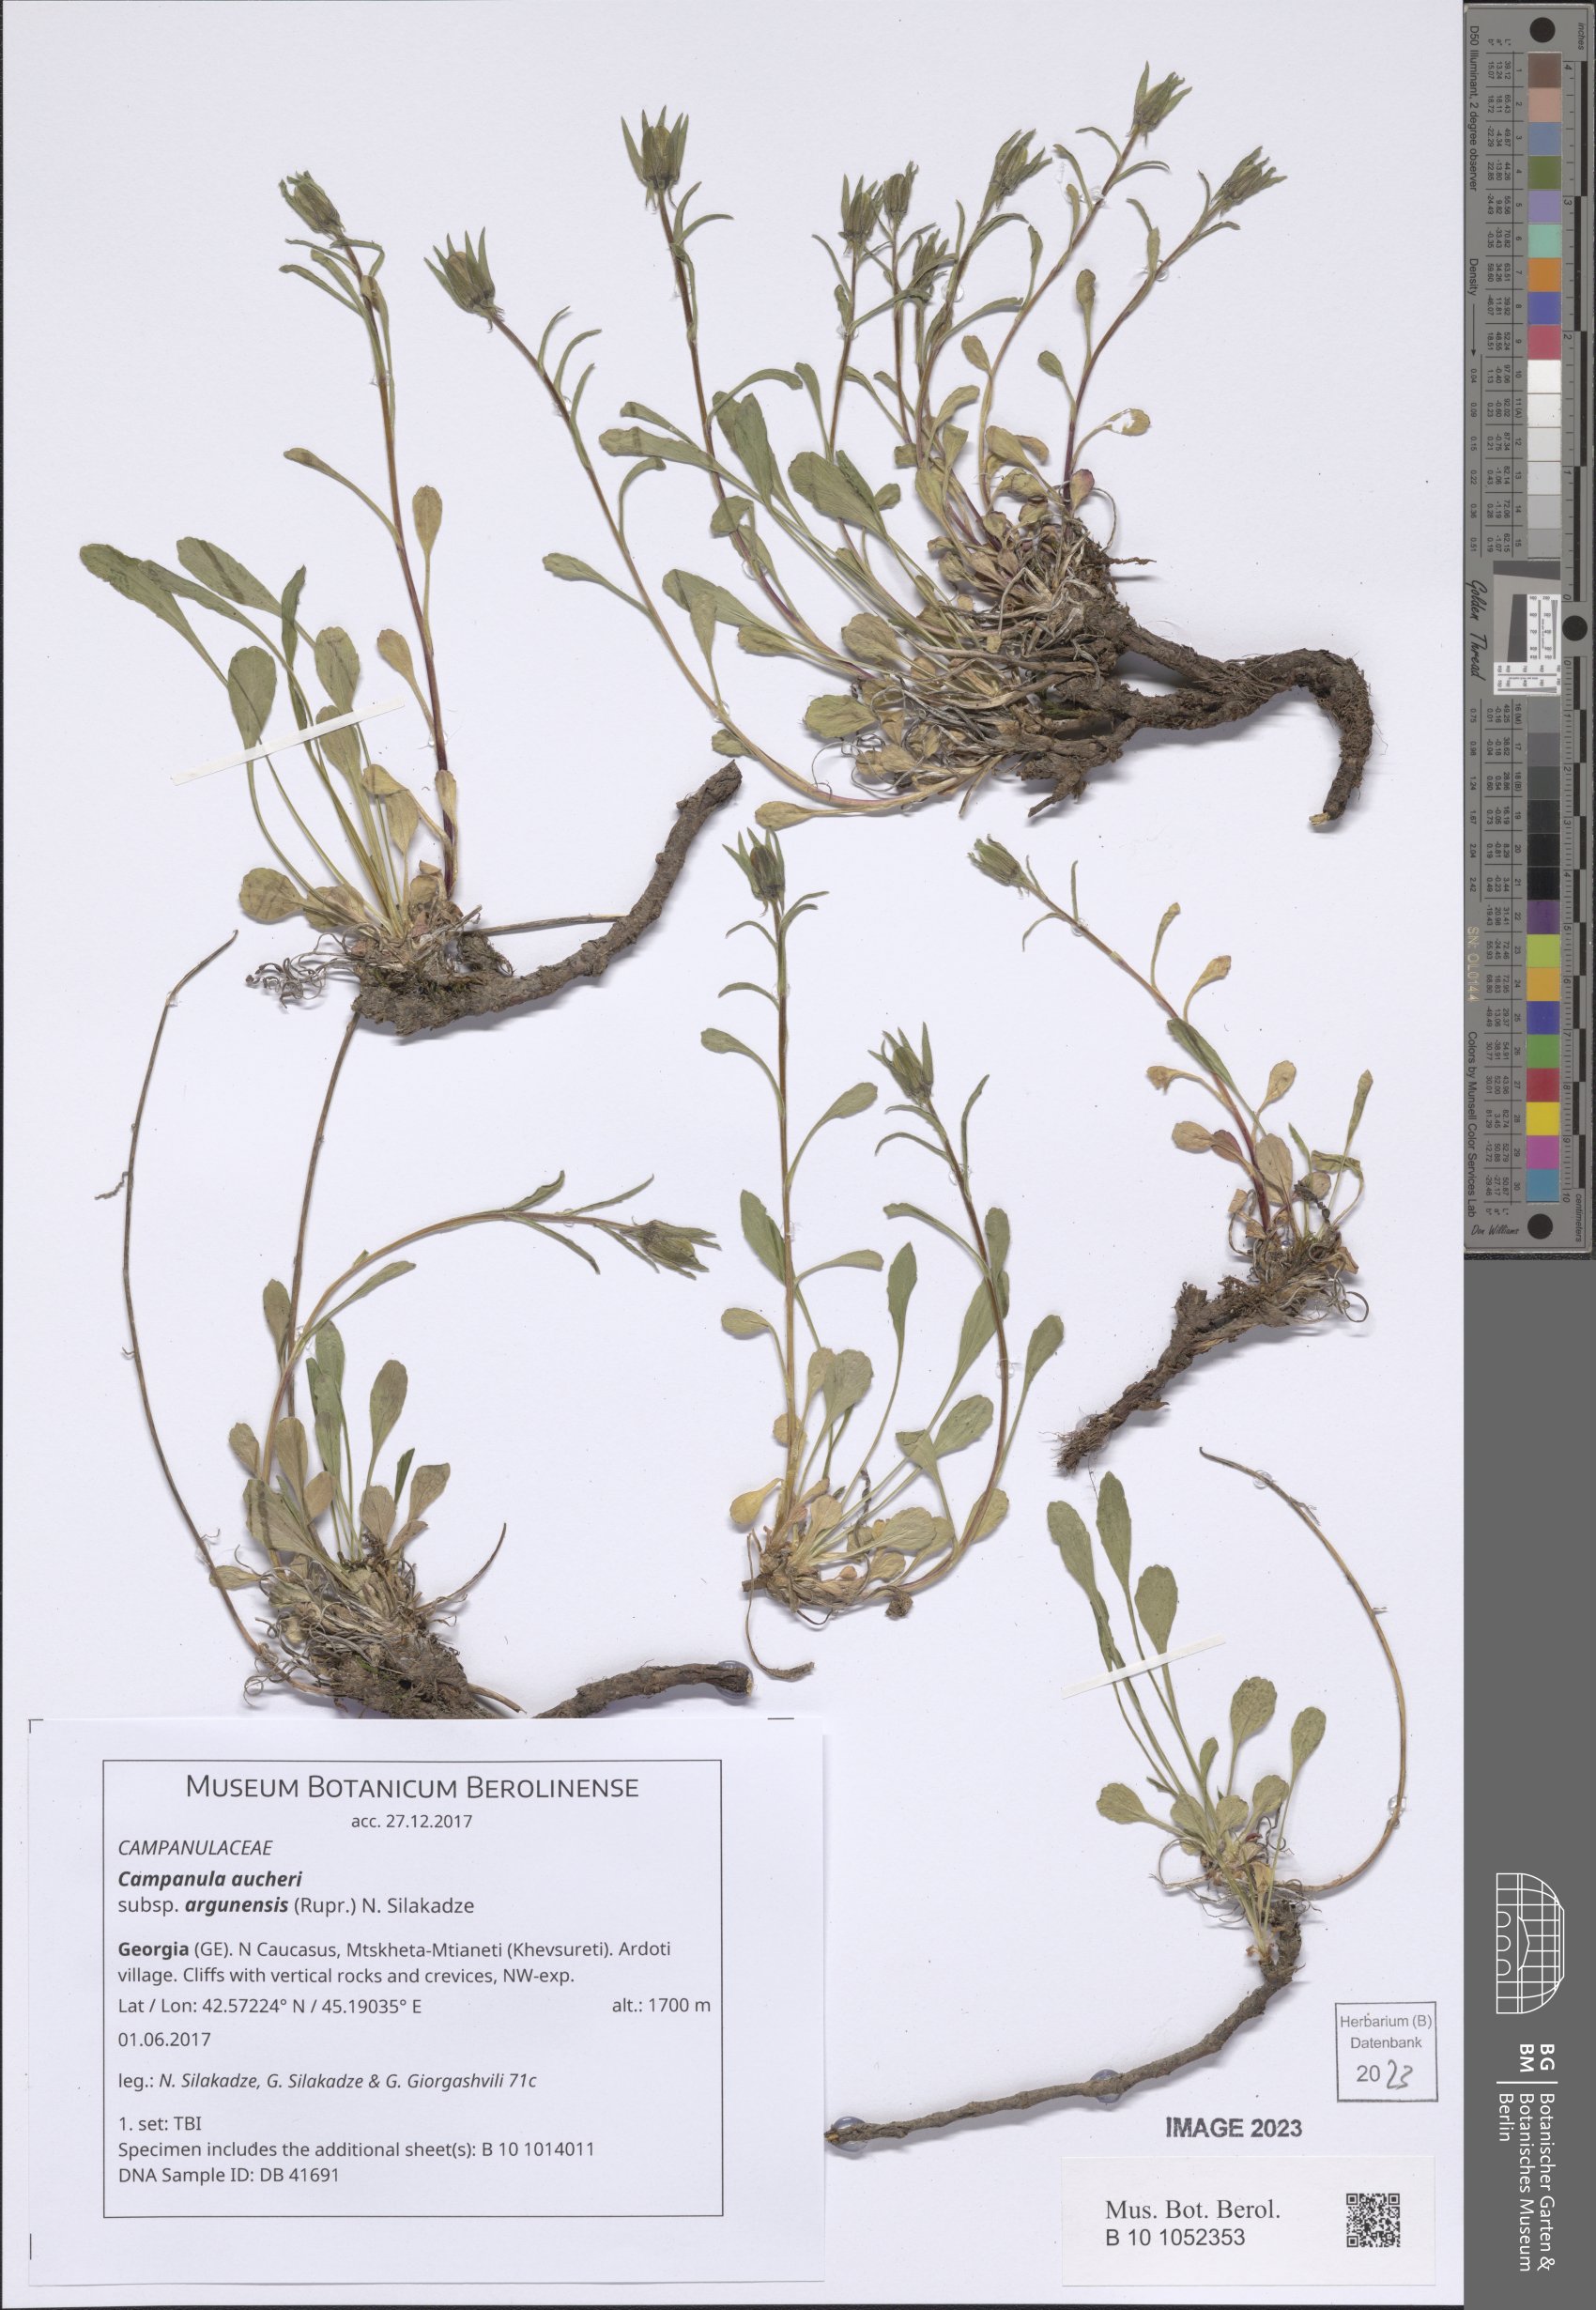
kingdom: Plantae
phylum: Tracheophyta
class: Magnoliopsida
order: Asterales
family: Campanulaceae
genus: Campanula
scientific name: Campanula saxifraga
